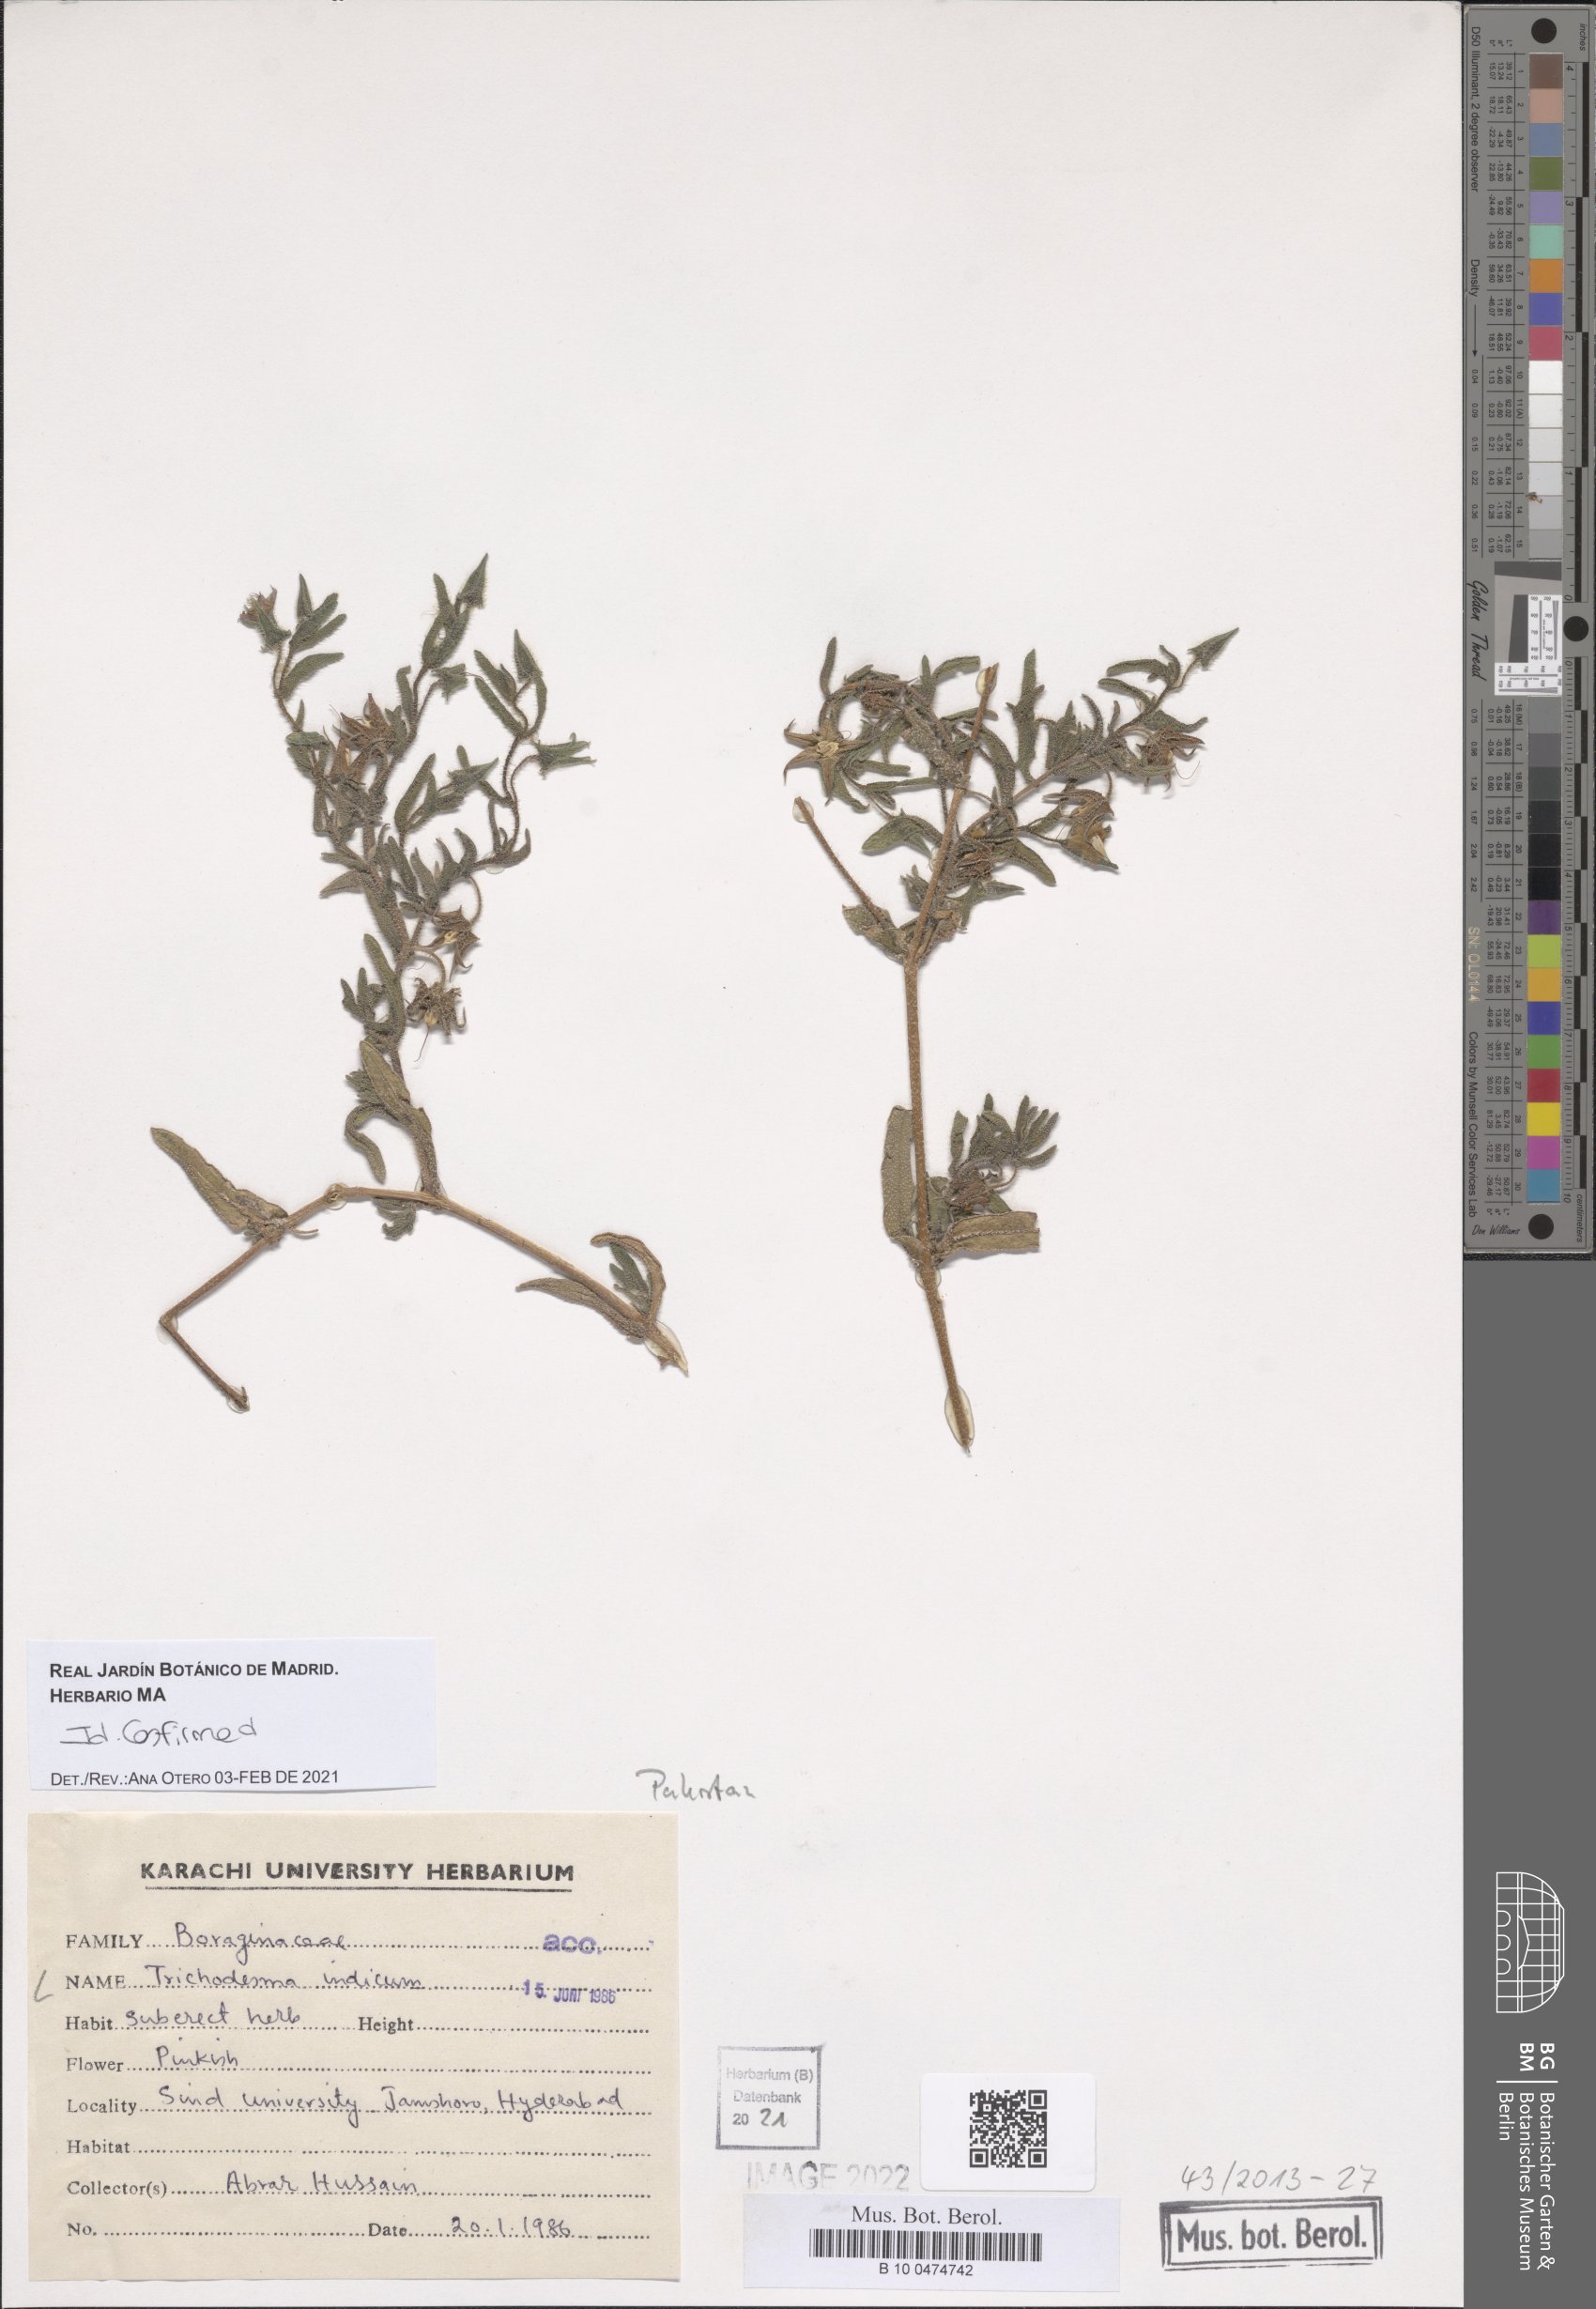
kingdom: Plantae
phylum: Tracheophyta
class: Magnoliopsida
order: Boraginales
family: Boraginaceae
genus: Trichodesma
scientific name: Trichodesma indicum
